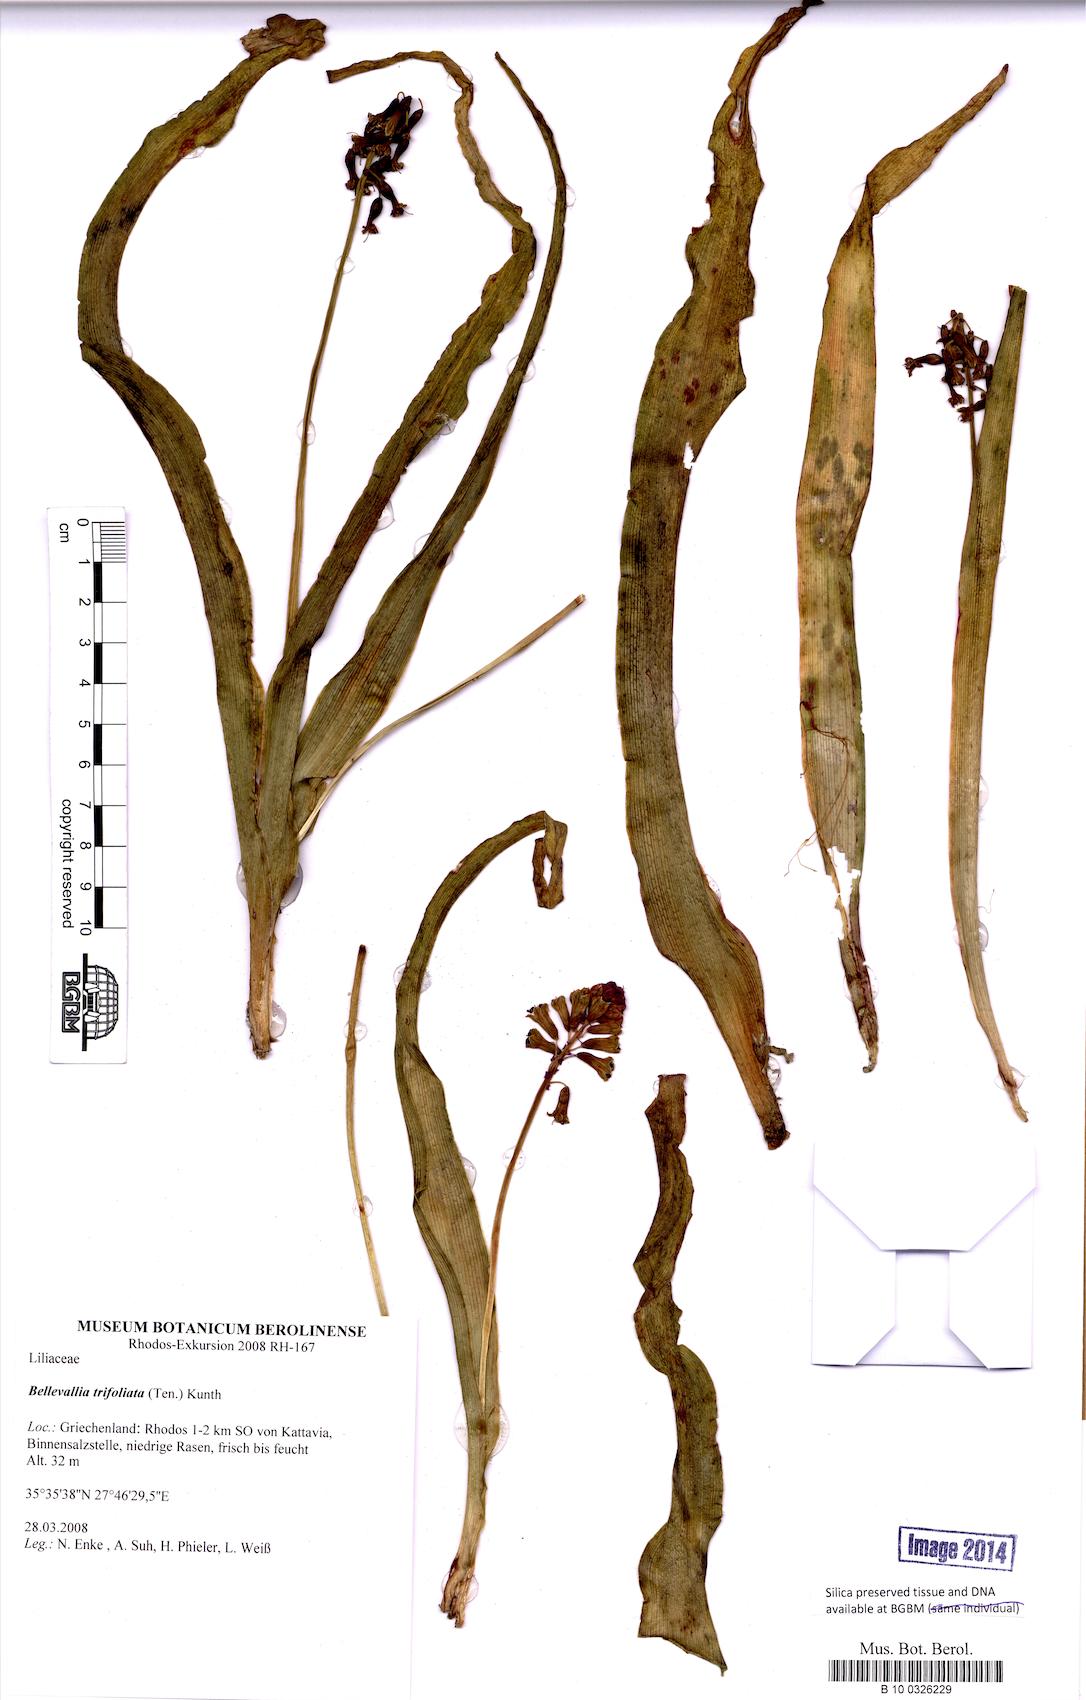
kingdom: Plantae
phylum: Tracheophyta
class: Liliopsida
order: Asparagales
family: Asparagaceae
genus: Bellevalia
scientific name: Bellevalia trifoliata
